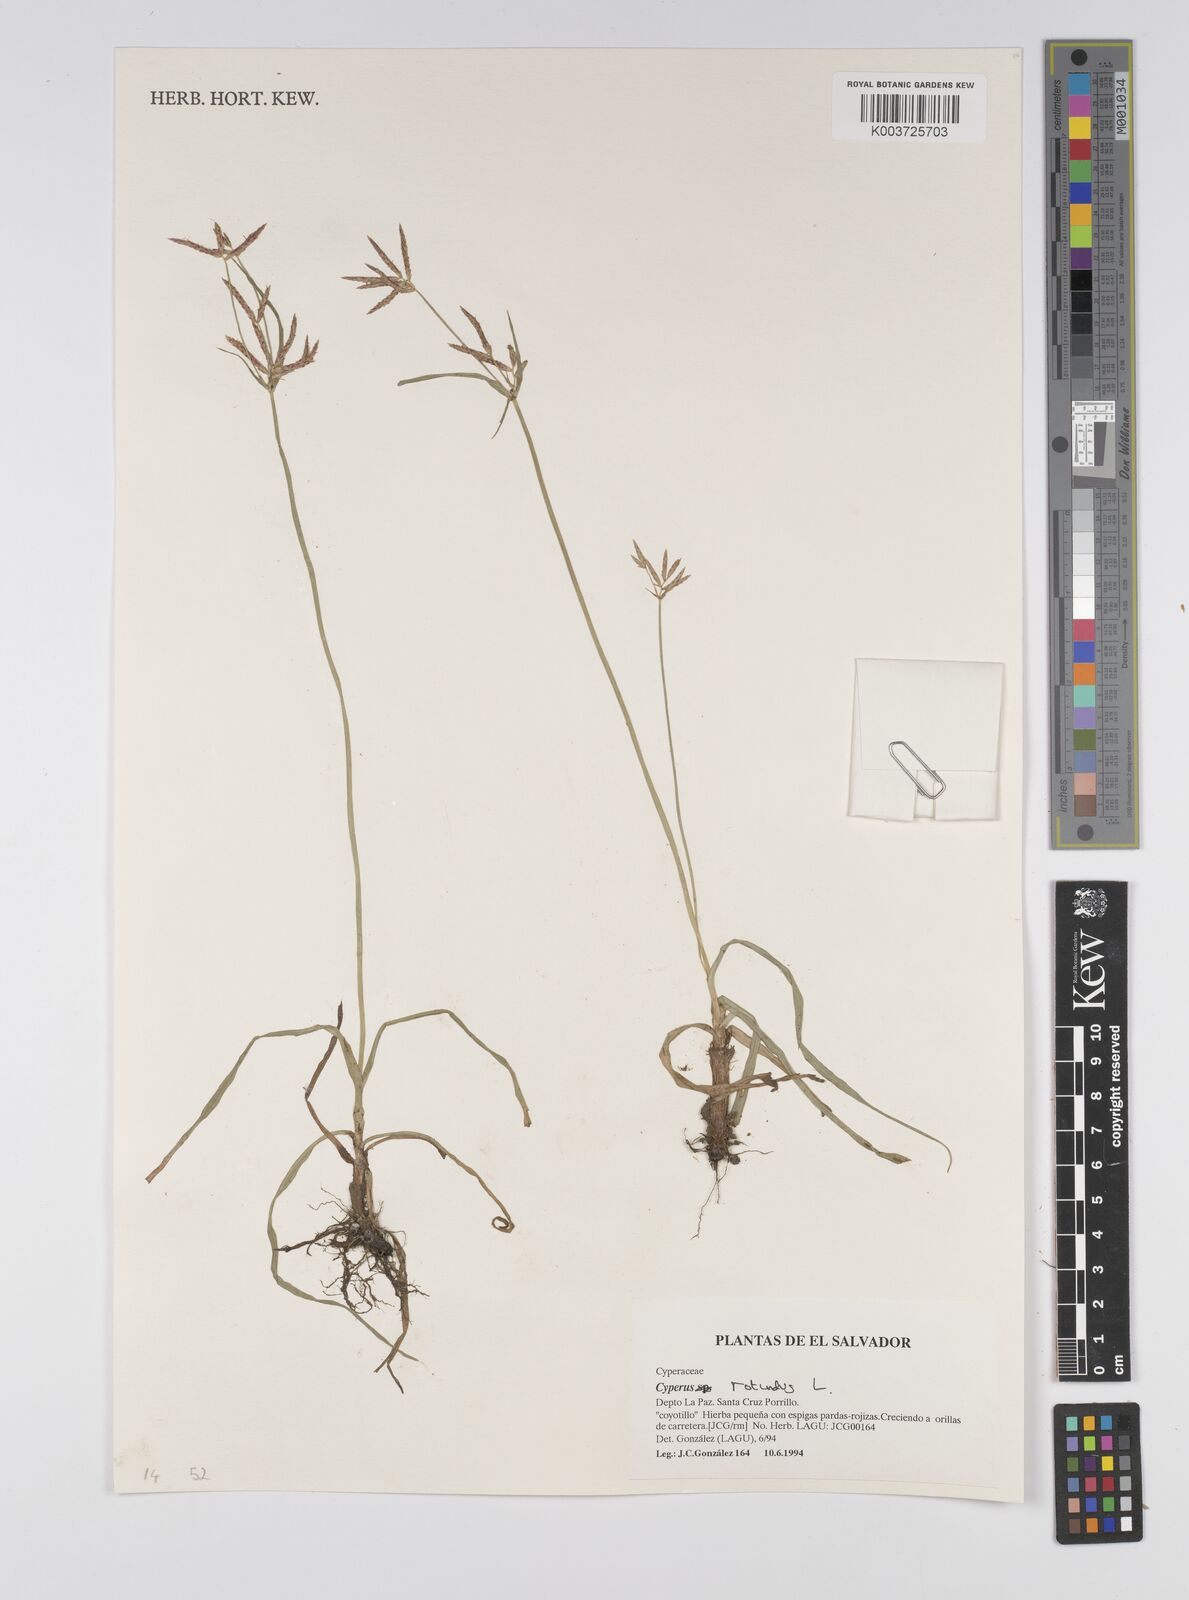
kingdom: Plantae
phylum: Tracheophyta
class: Liliopsida
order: Poales
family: Cyperaceae
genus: Cyperus
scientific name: Cyperus rotundus
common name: Nutgrass
